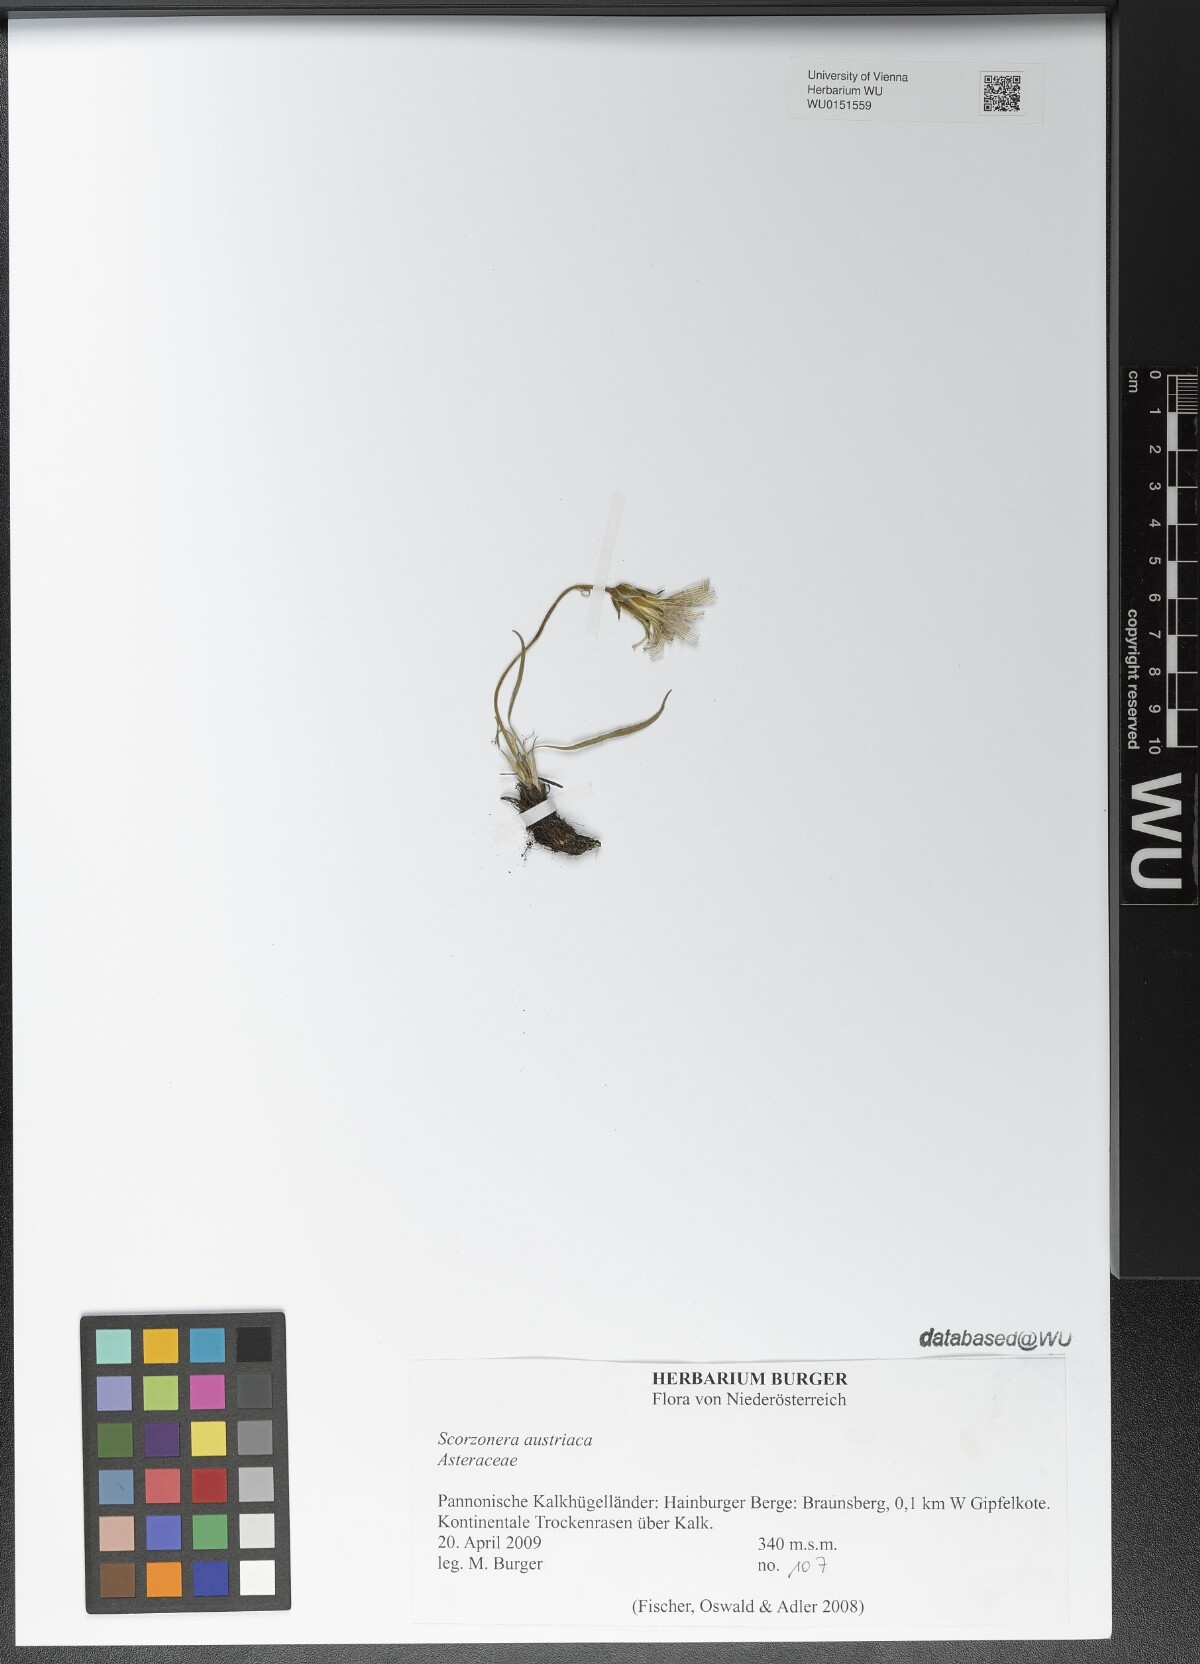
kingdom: Plantae
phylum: Tracheophyta
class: Magnoliopsida
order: Asterales
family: Asteraceae
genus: Takhtajaniantha
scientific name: Takhtajaniantha austriaca
